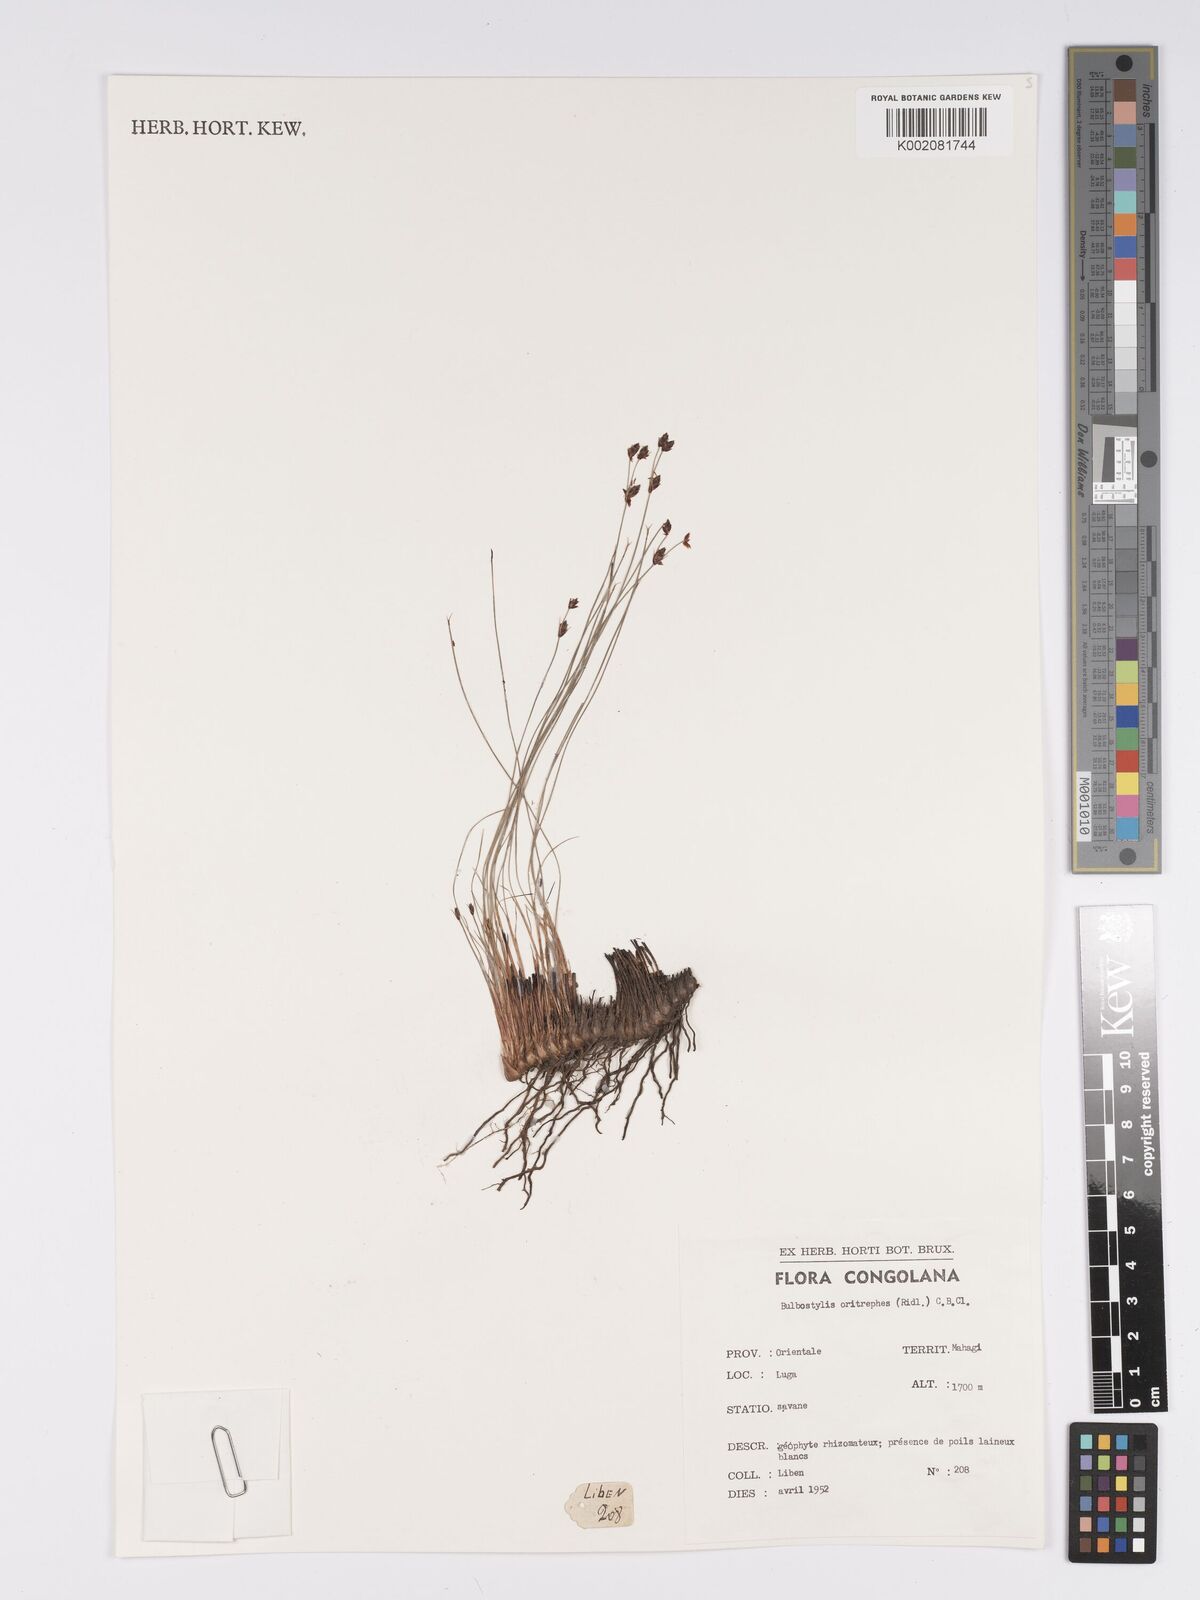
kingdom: Plantae
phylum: Tracheophyta
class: Liliopsida
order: Poales
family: Cyperaceae
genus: Bulbostylis
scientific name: Bulbostylis oritrephes
